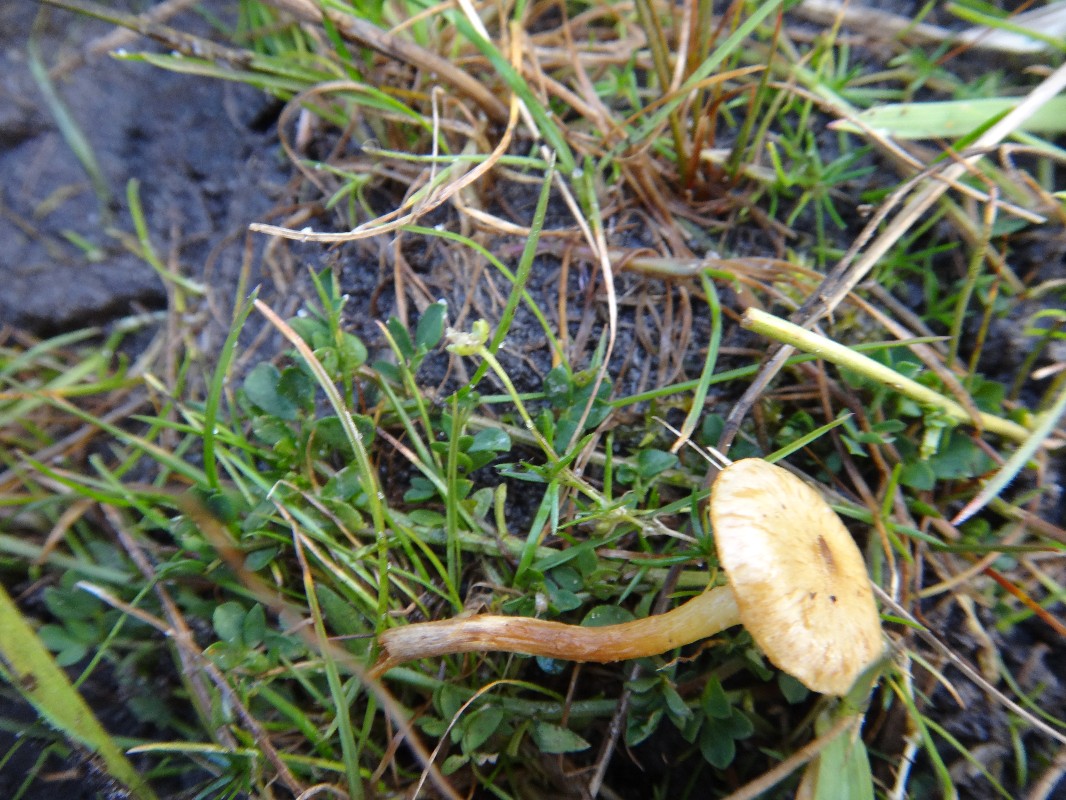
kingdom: Fungi
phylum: Basidiomycota
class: Agaricomycetes
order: Agaricales
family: Strophariaceae
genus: Pholiota
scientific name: Pholiota conissans
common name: pile-skælhat
